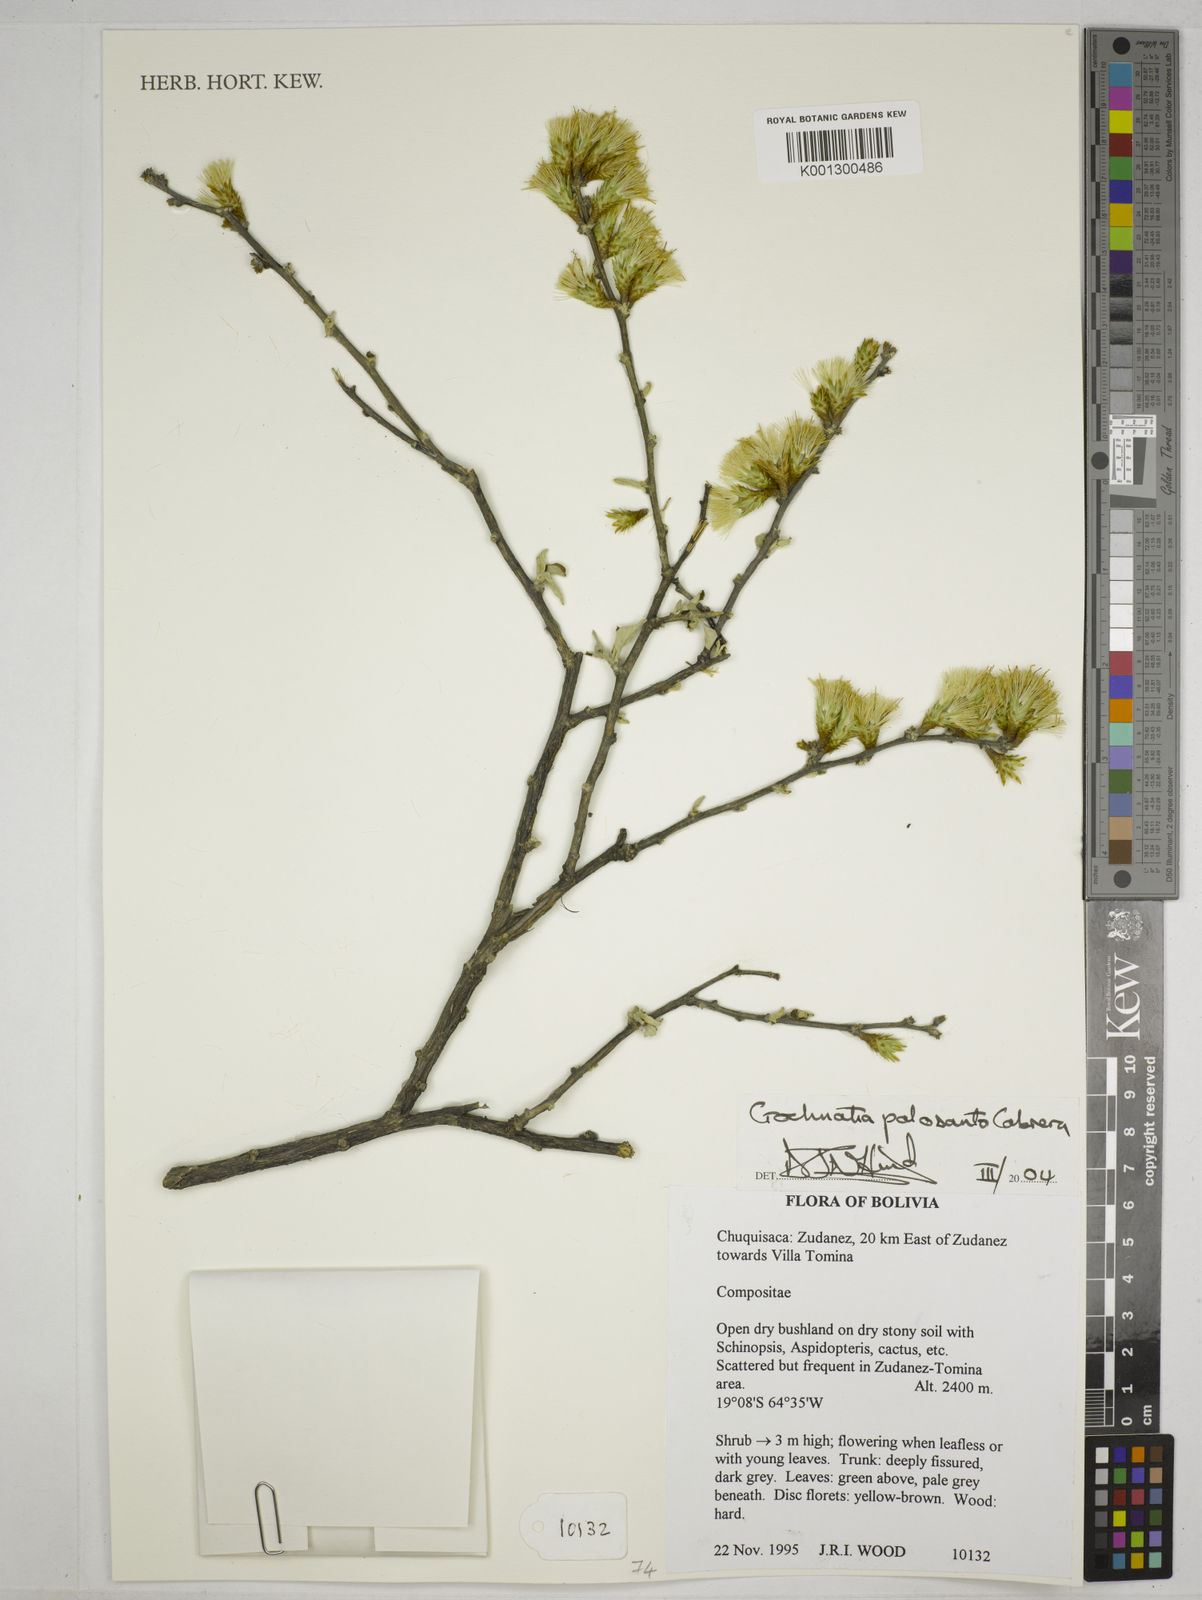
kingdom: Plantae
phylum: Tracheophyta
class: Magnoliopsida
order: Asterales
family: Asteraceae
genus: Gochnatia
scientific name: Gochnatia palosanto
